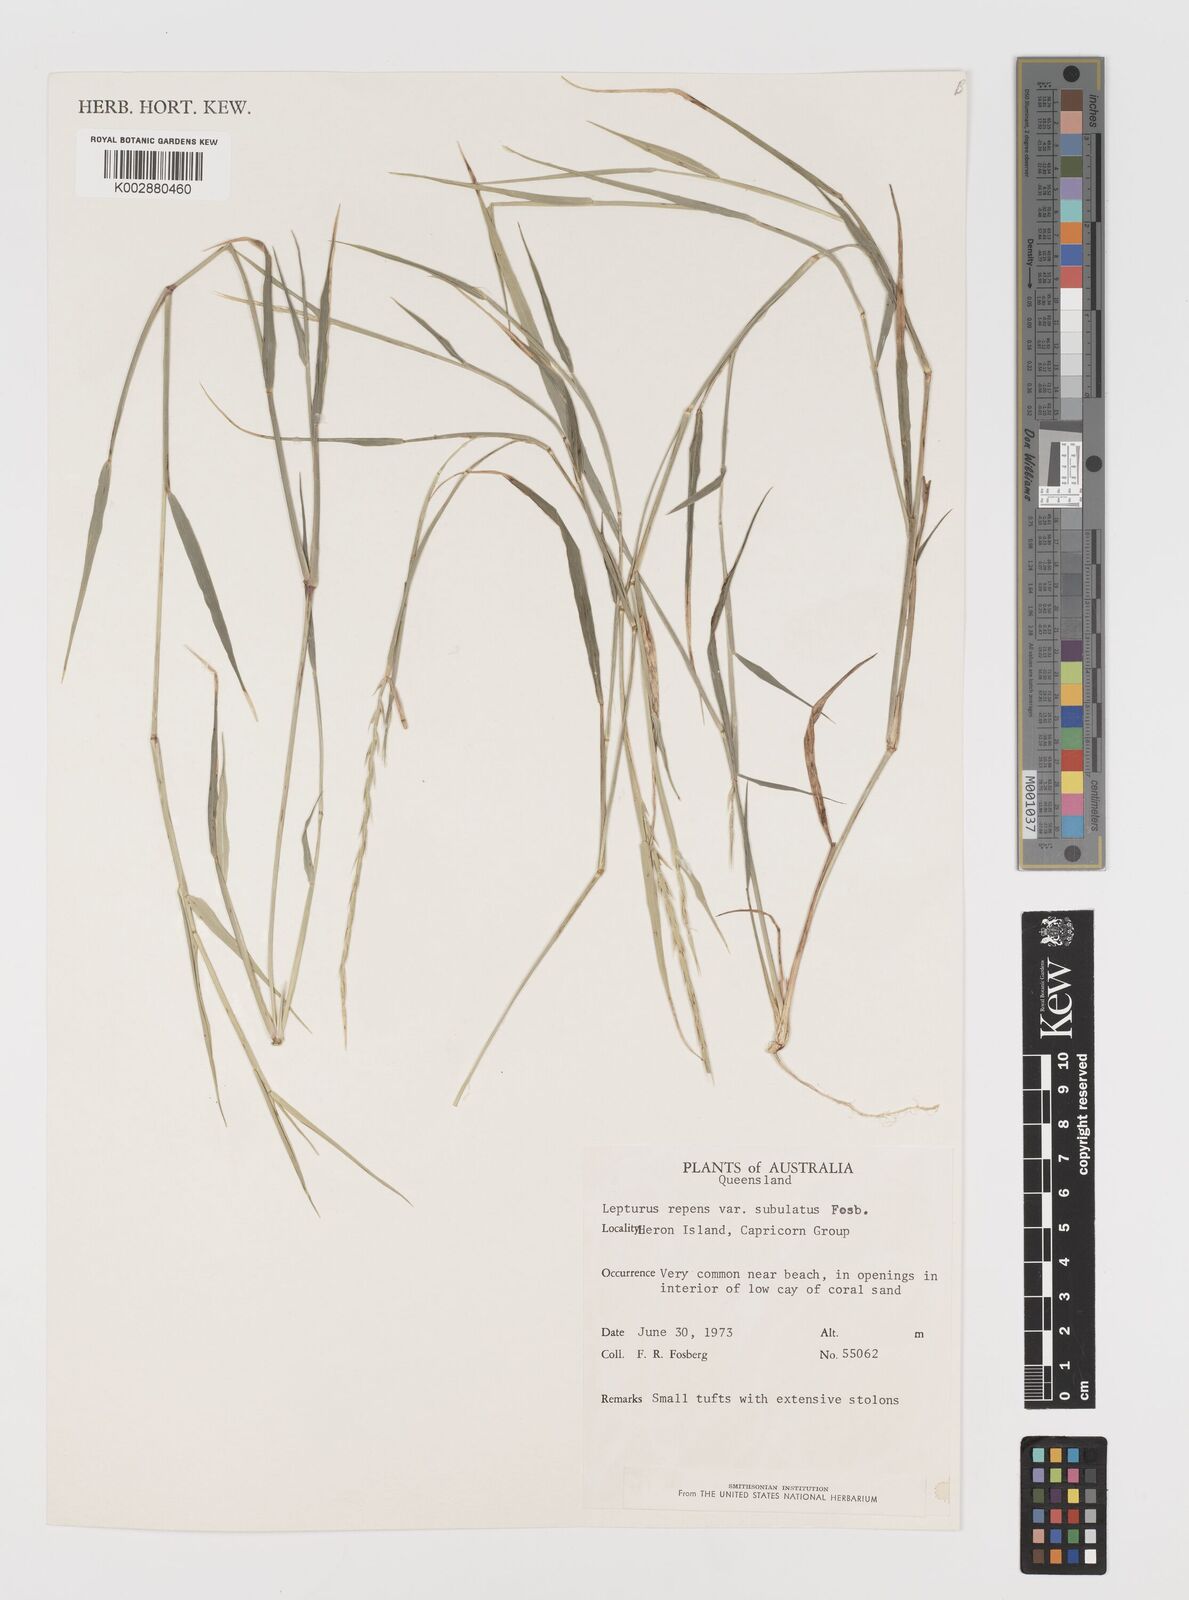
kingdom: Plantae
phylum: Tracheophyta
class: Liliopsida
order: Poales
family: Poaceae
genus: Lepturus
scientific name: Lepturus repens
